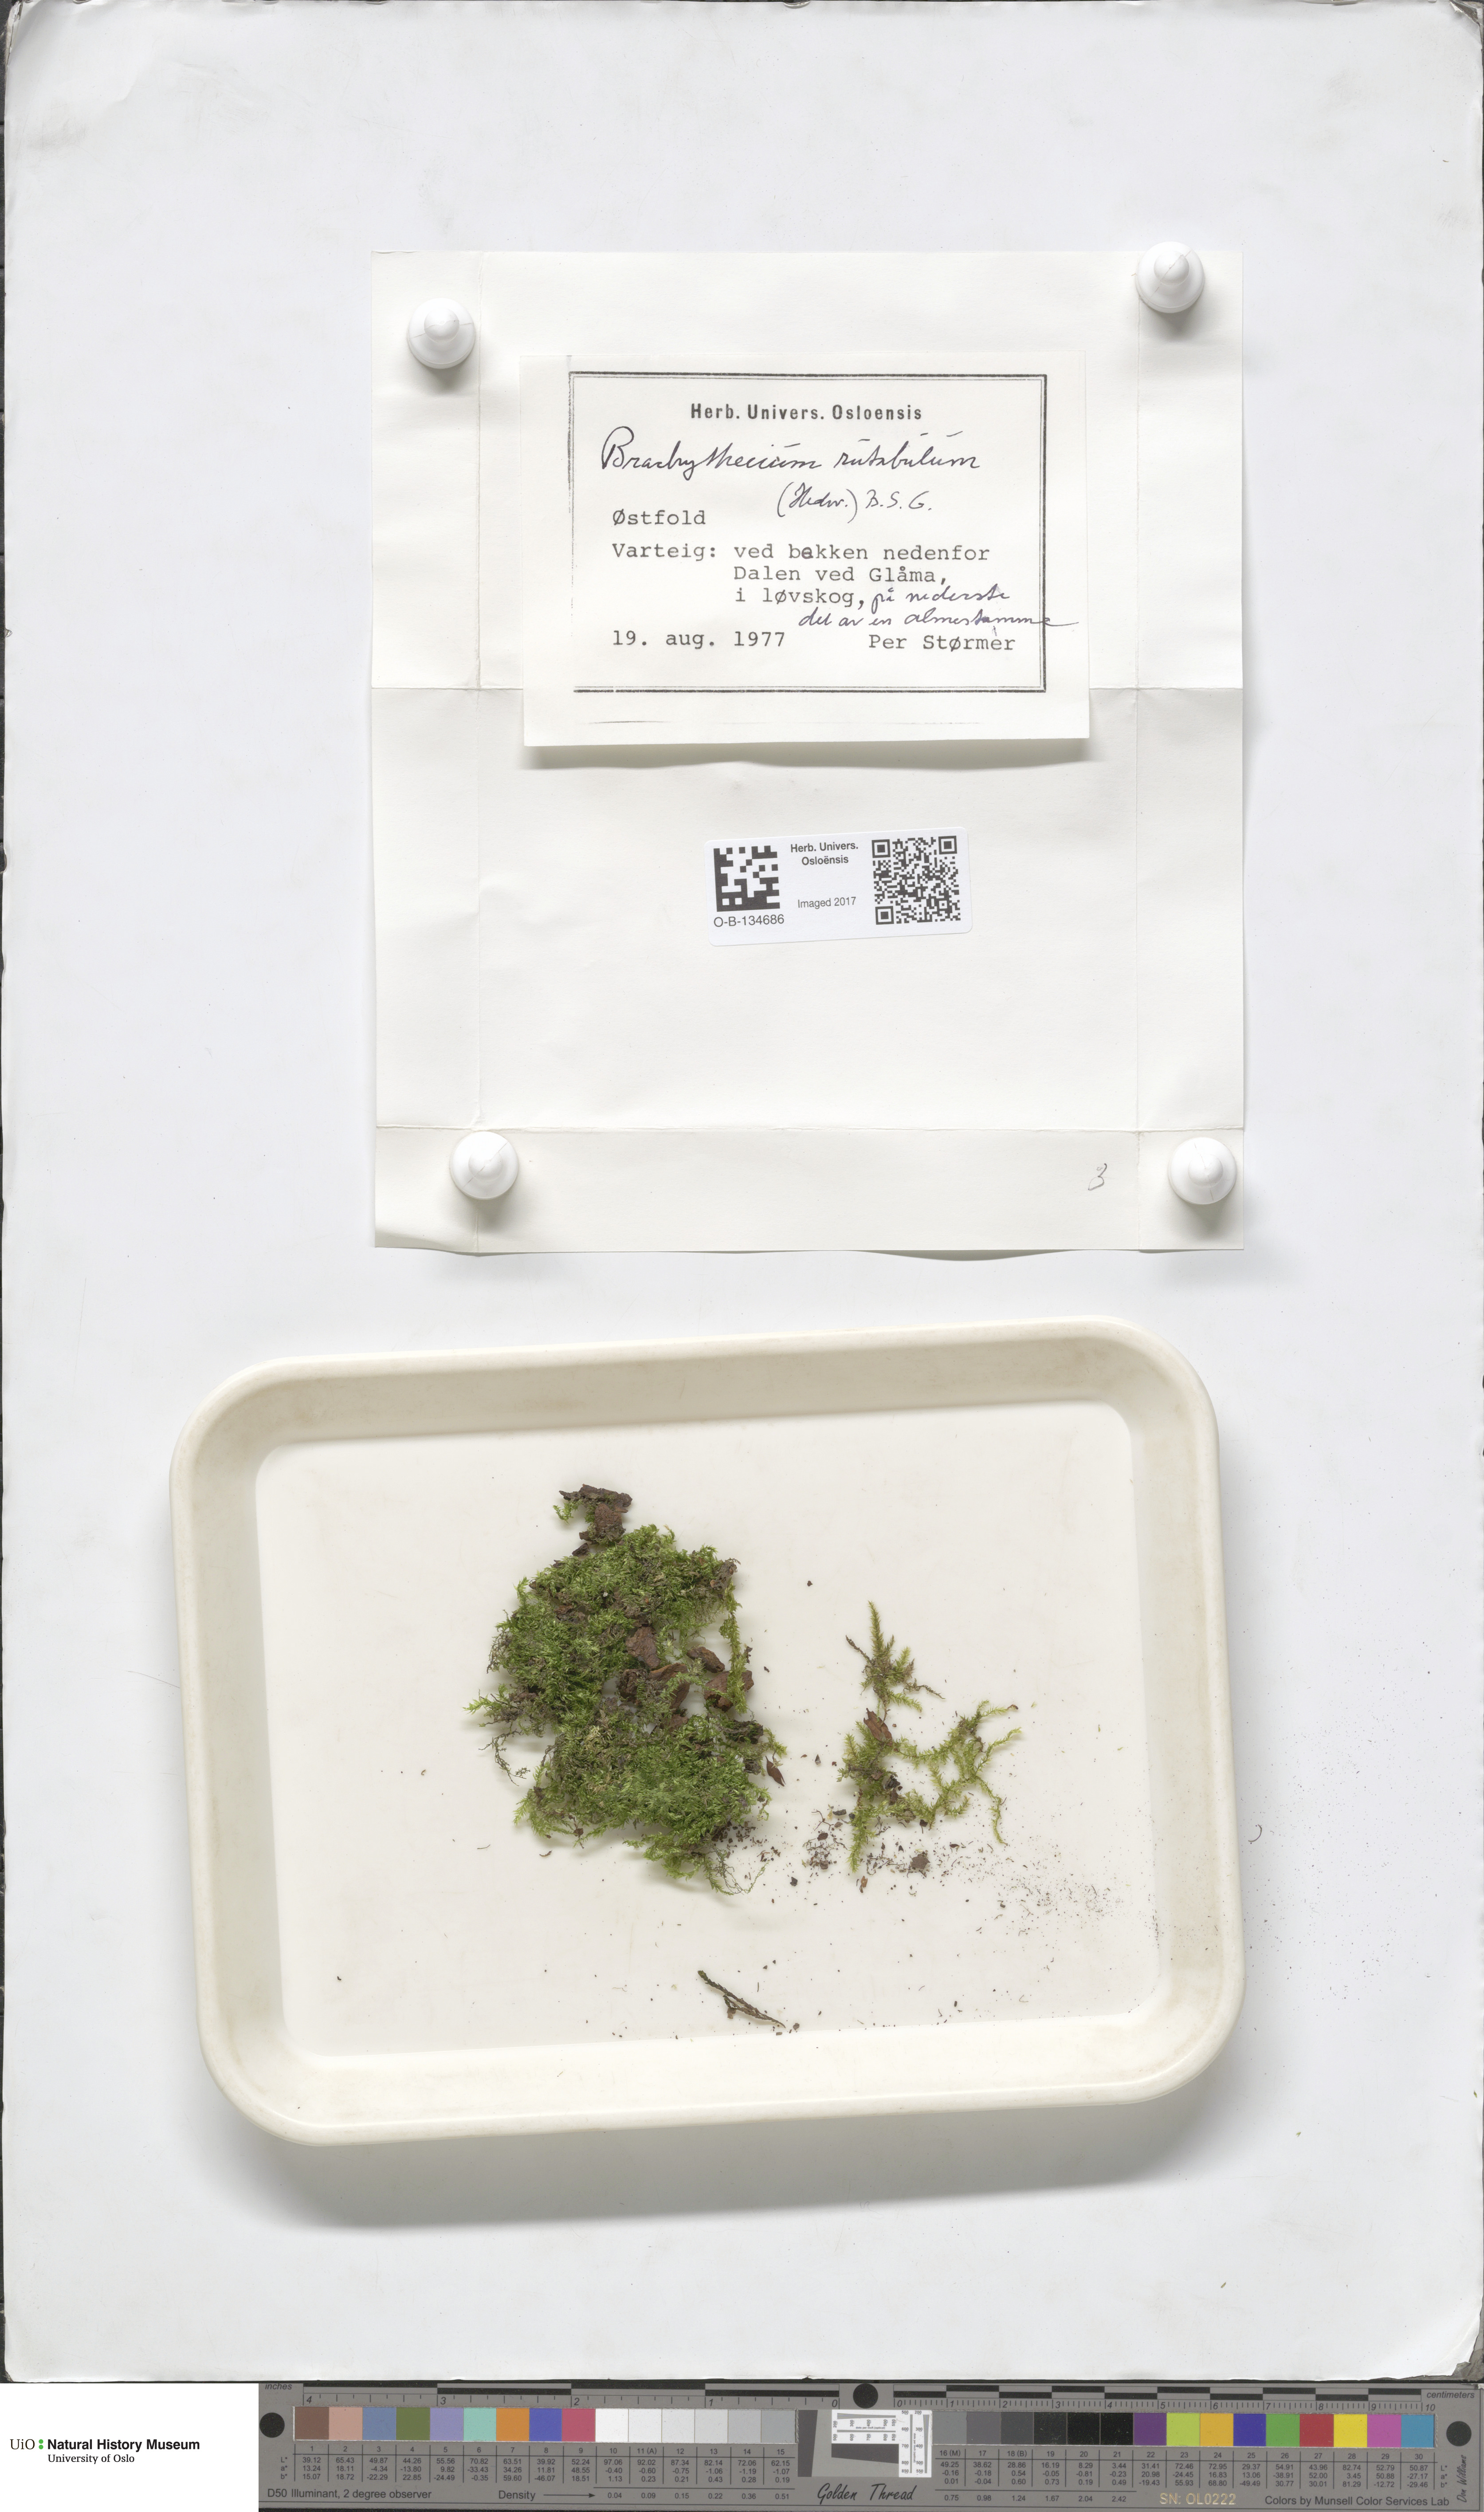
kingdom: Plantae
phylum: Bryophyta
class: Bryopsida
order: Hypnales
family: Brachytheciaceae
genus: Brachythecium
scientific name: Brachythecium rutabulum
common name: Rough-stalked feather-moss
